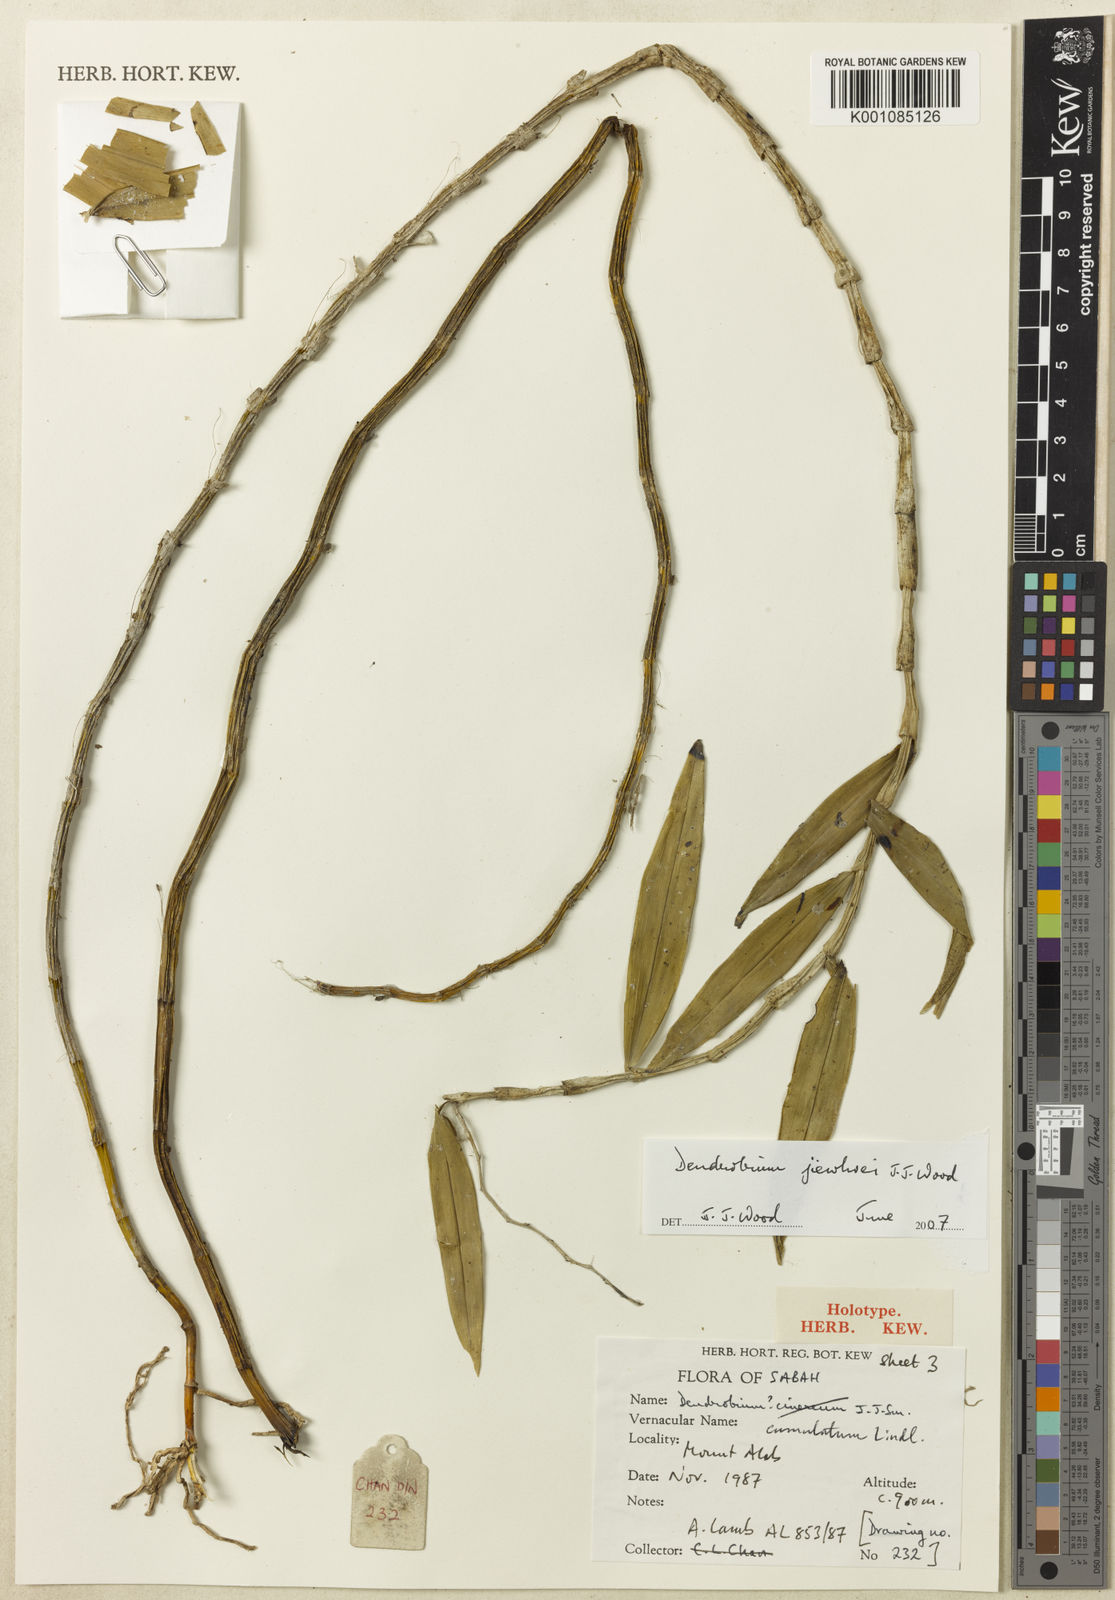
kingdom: Plantae
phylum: Tracheophyta
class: Liliopsida
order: Asparagales
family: Orchidaceae
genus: Dendrobium
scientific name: Dendrobium calcariferum
